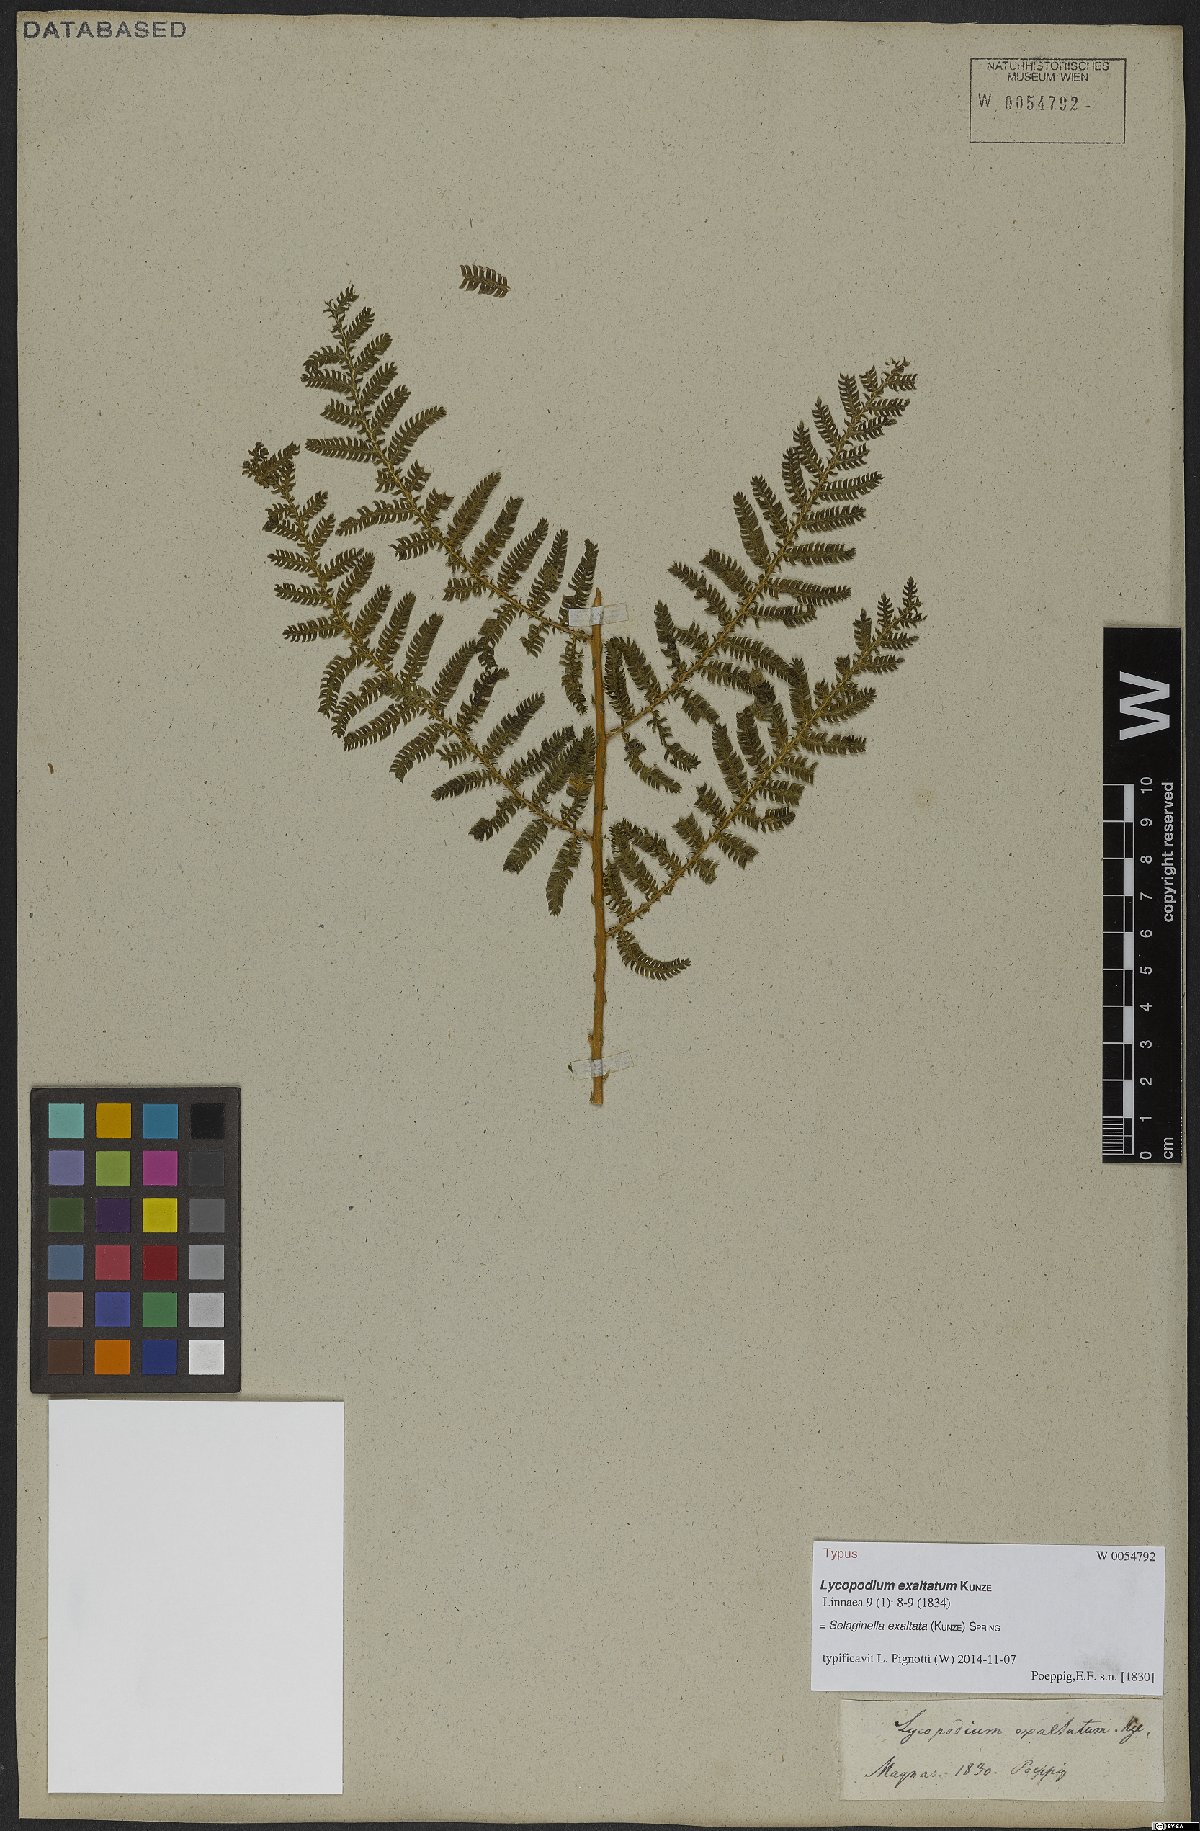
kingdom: Plantae
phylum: Tracheophyta
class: Lycopodiopsida
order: Selaginellales
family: Selaginellaceae
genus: Selaginella
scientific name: Selaginella exaltata
